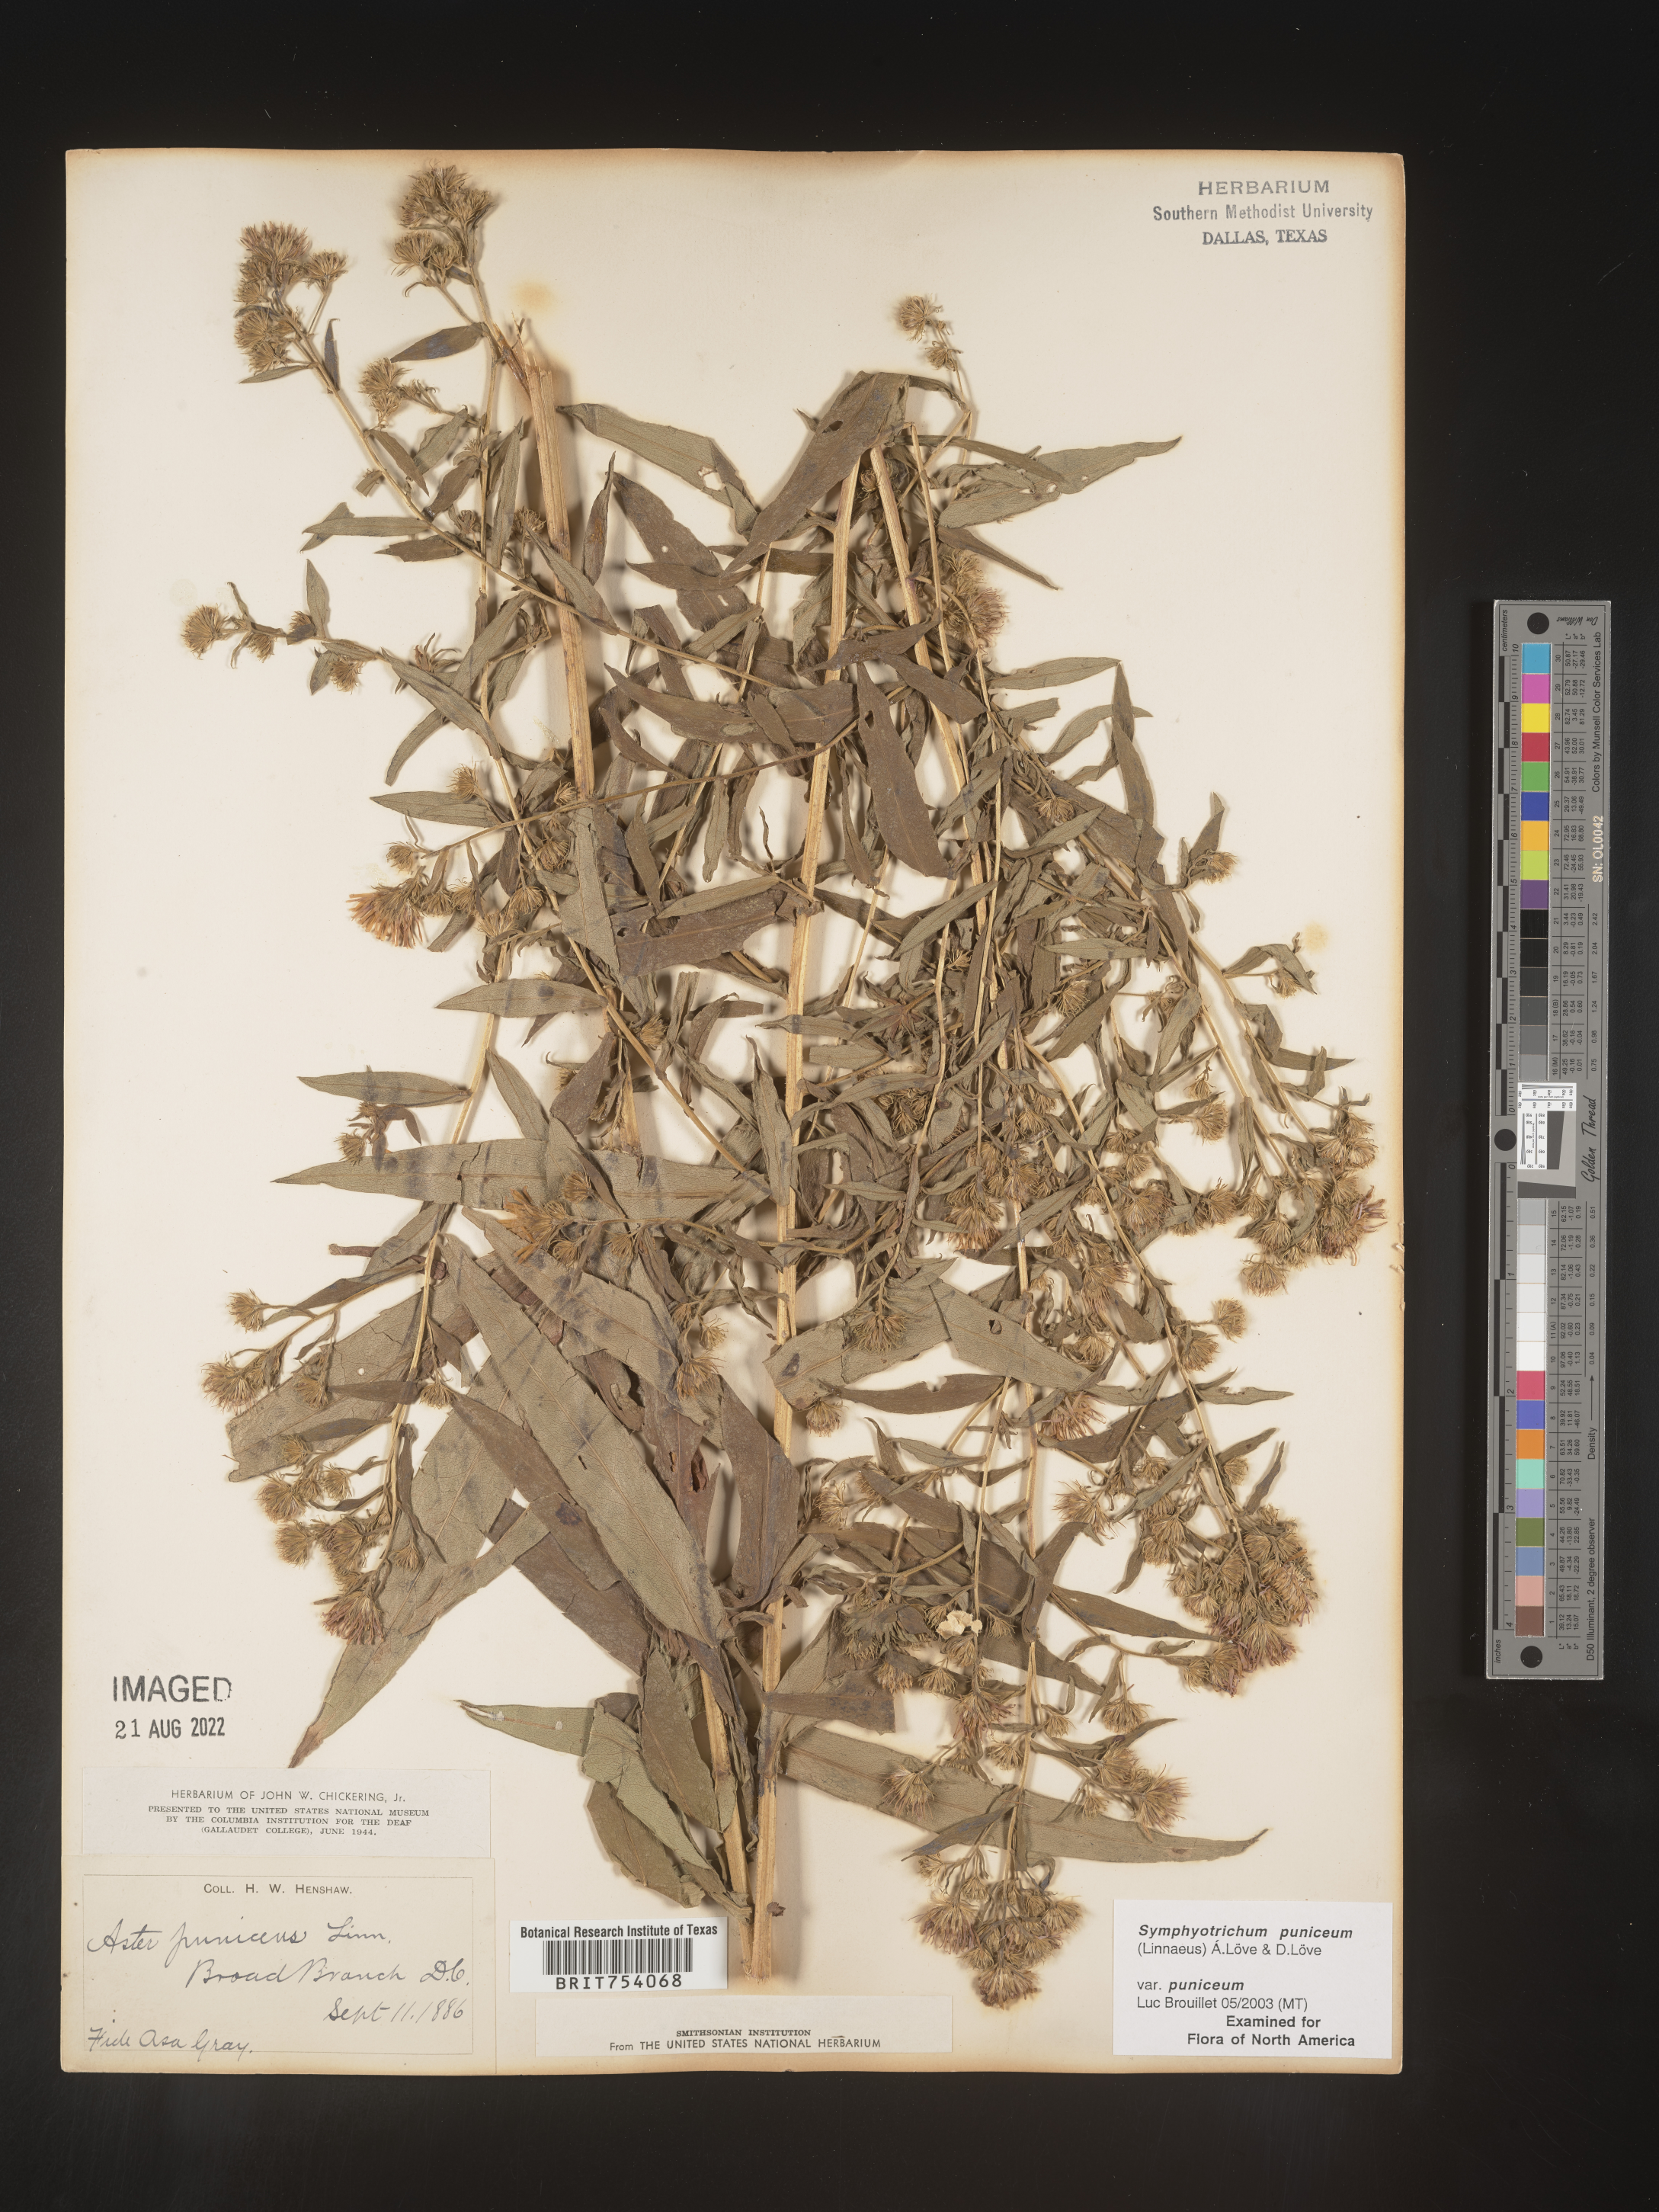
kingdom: Plantae
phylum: Tracheophyta
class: Magnoliopsida
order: Asterales
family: Asteraceae
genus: Symphyotrichum
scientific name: Symphyotrichum puniceum
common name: Bog aster
